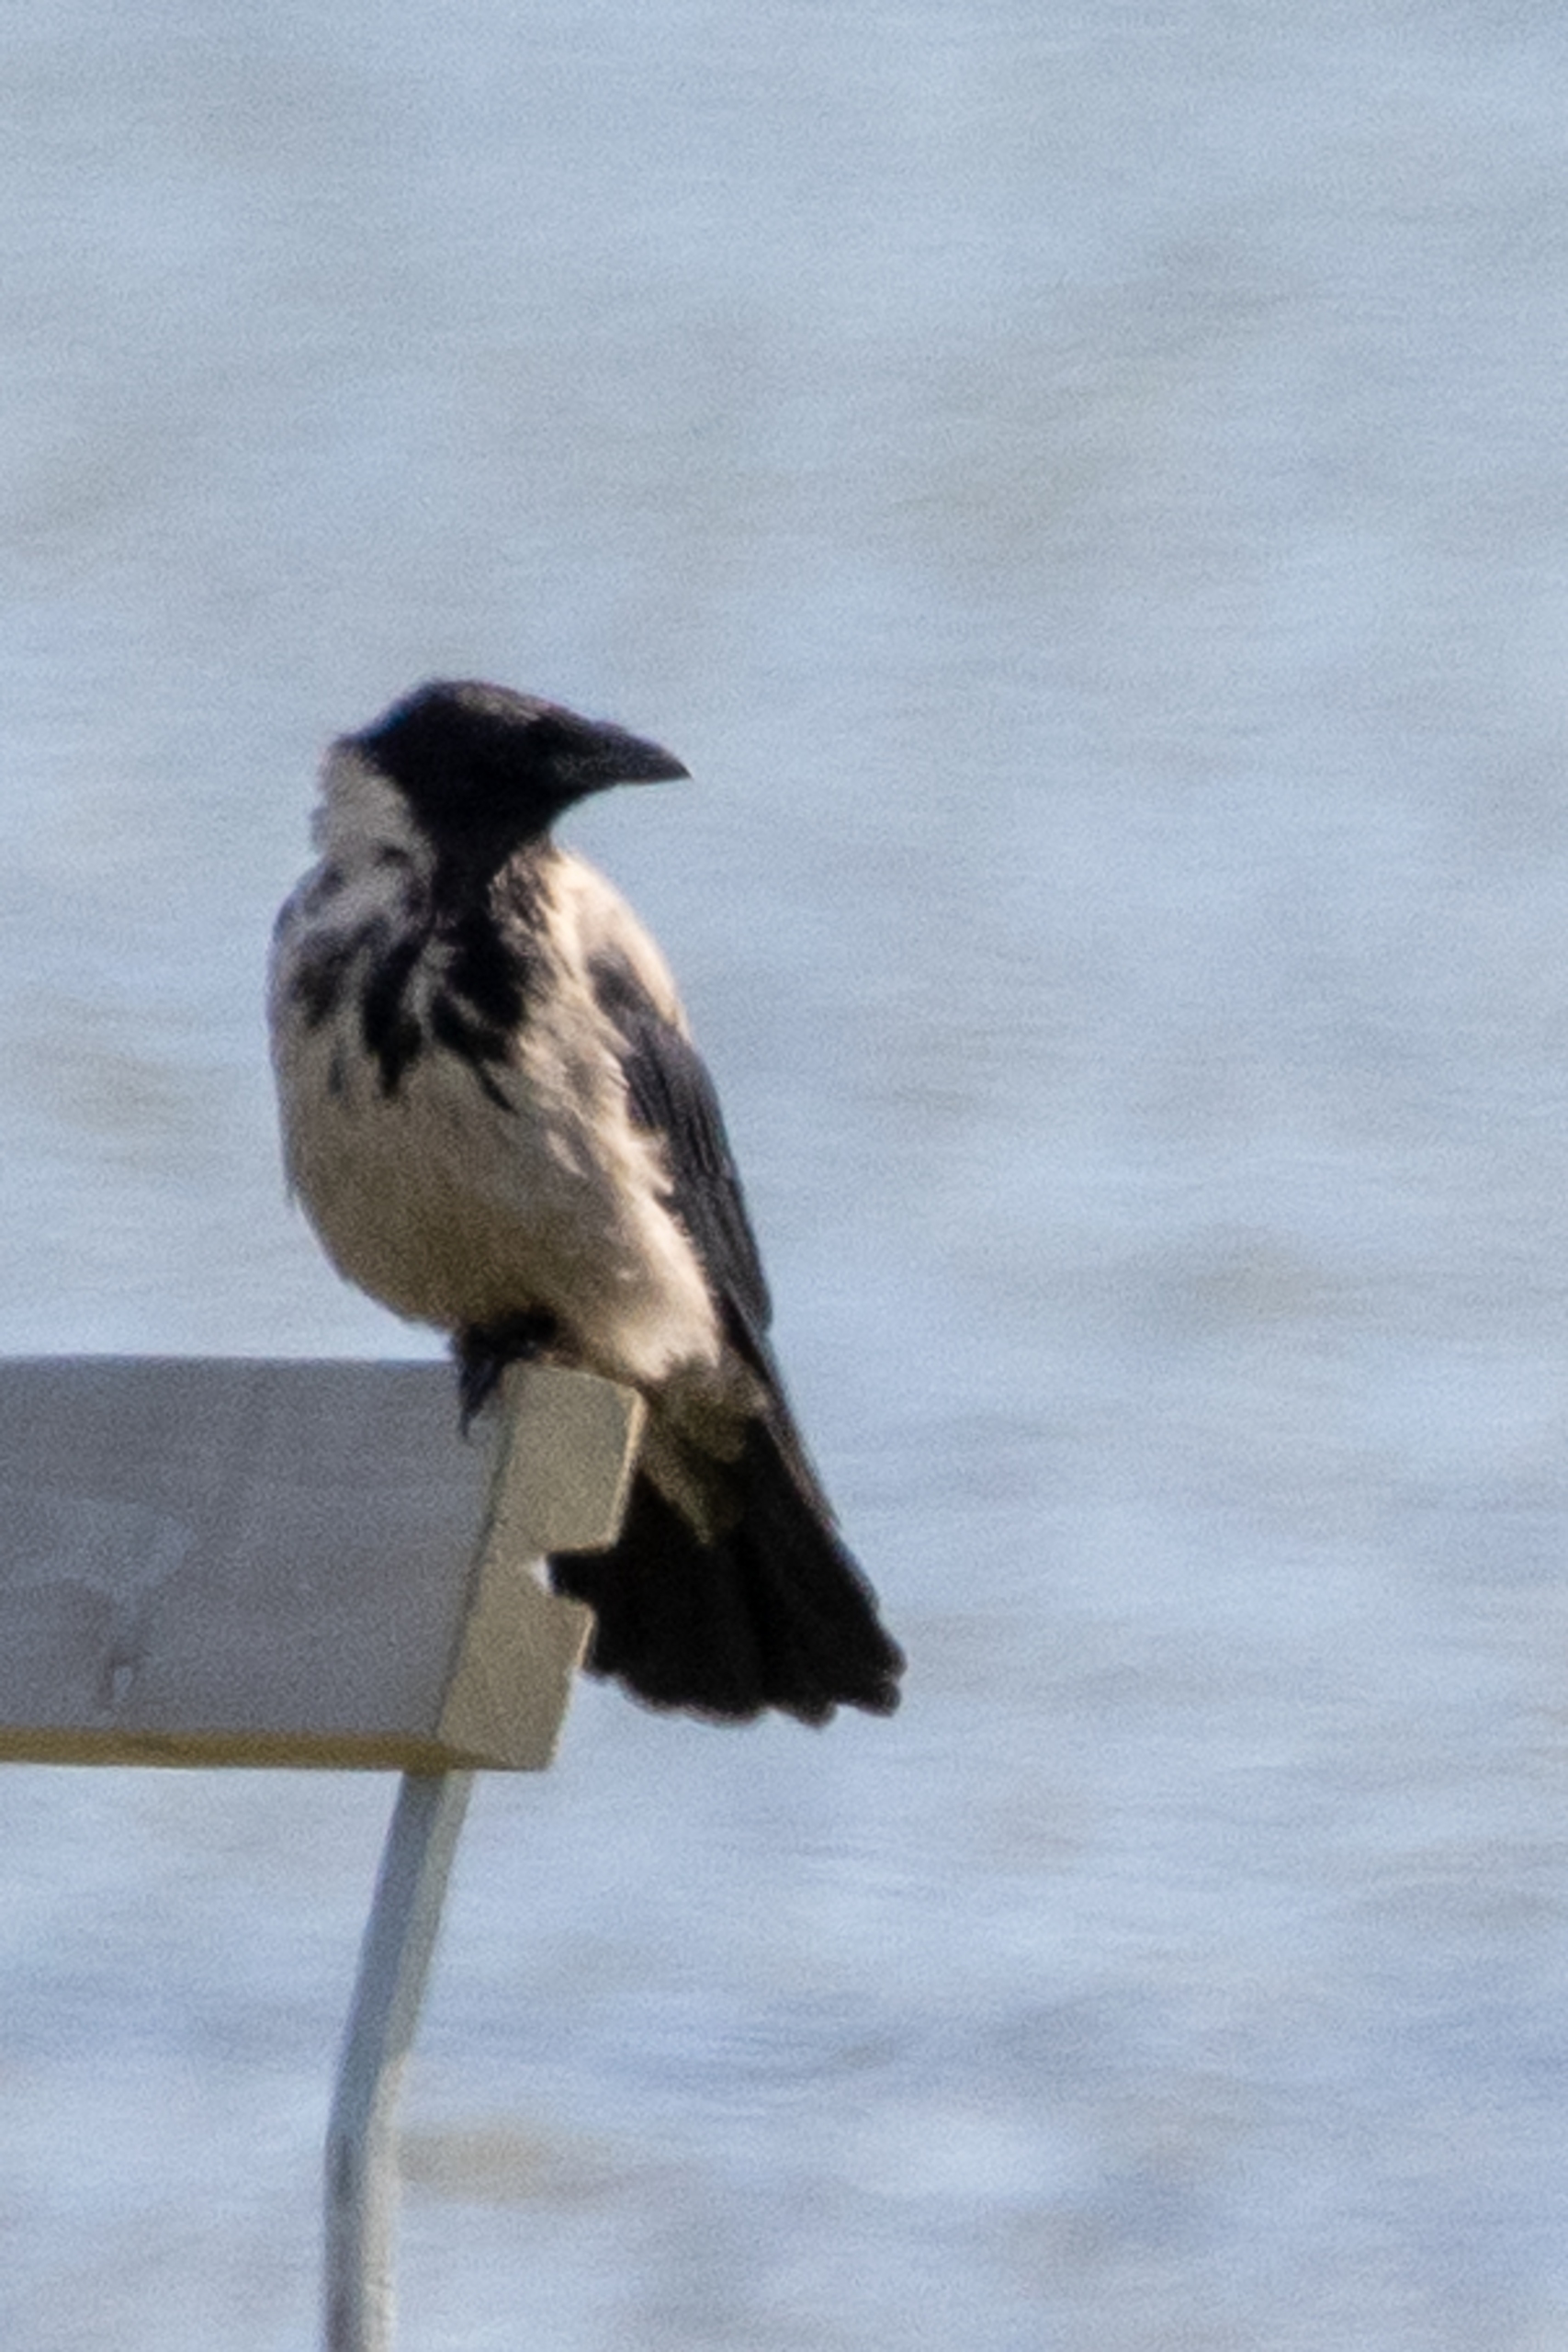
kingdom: Animalia
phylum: Chordata
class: Aves
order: Passeriformes
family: Corvidae
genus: Corvus
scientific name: Corvus cornix
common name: Gråkrage
